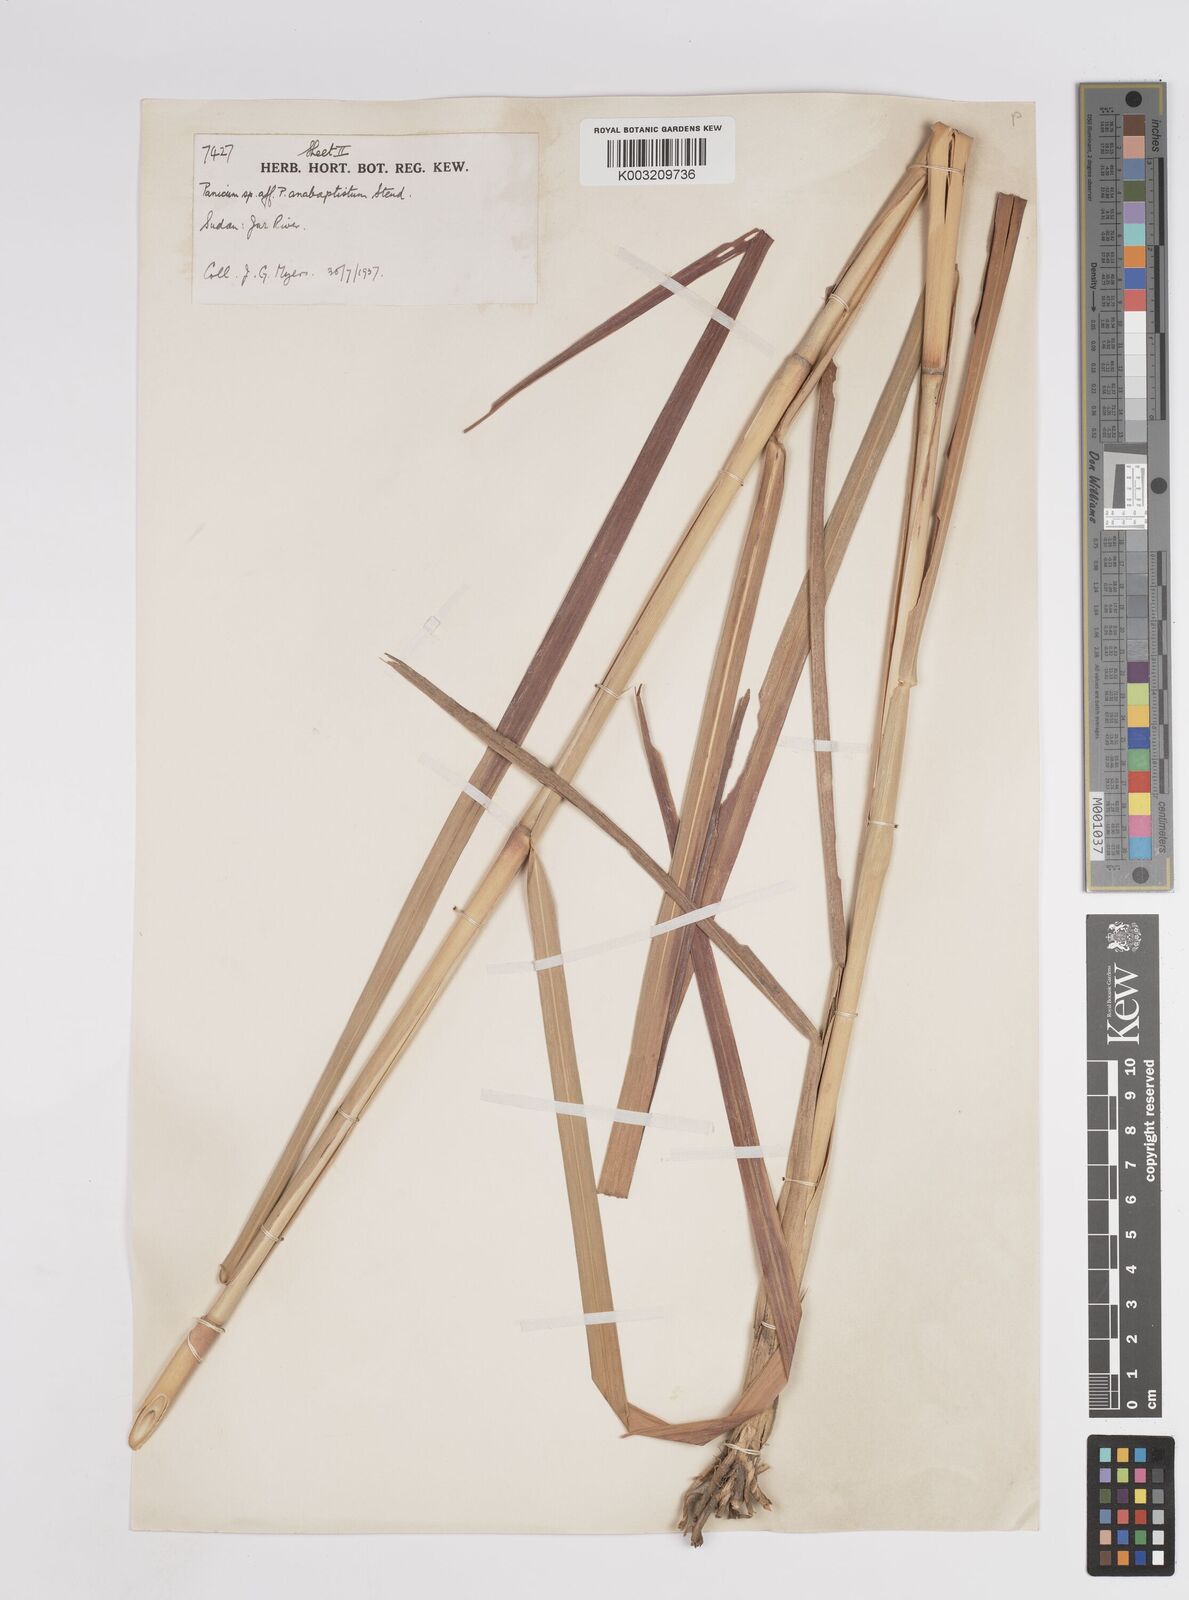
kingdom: Plantae
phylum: Tracheophyta
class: Liliopsida
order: Poales
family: Poaceae
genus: Panicum
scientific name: Panicum
